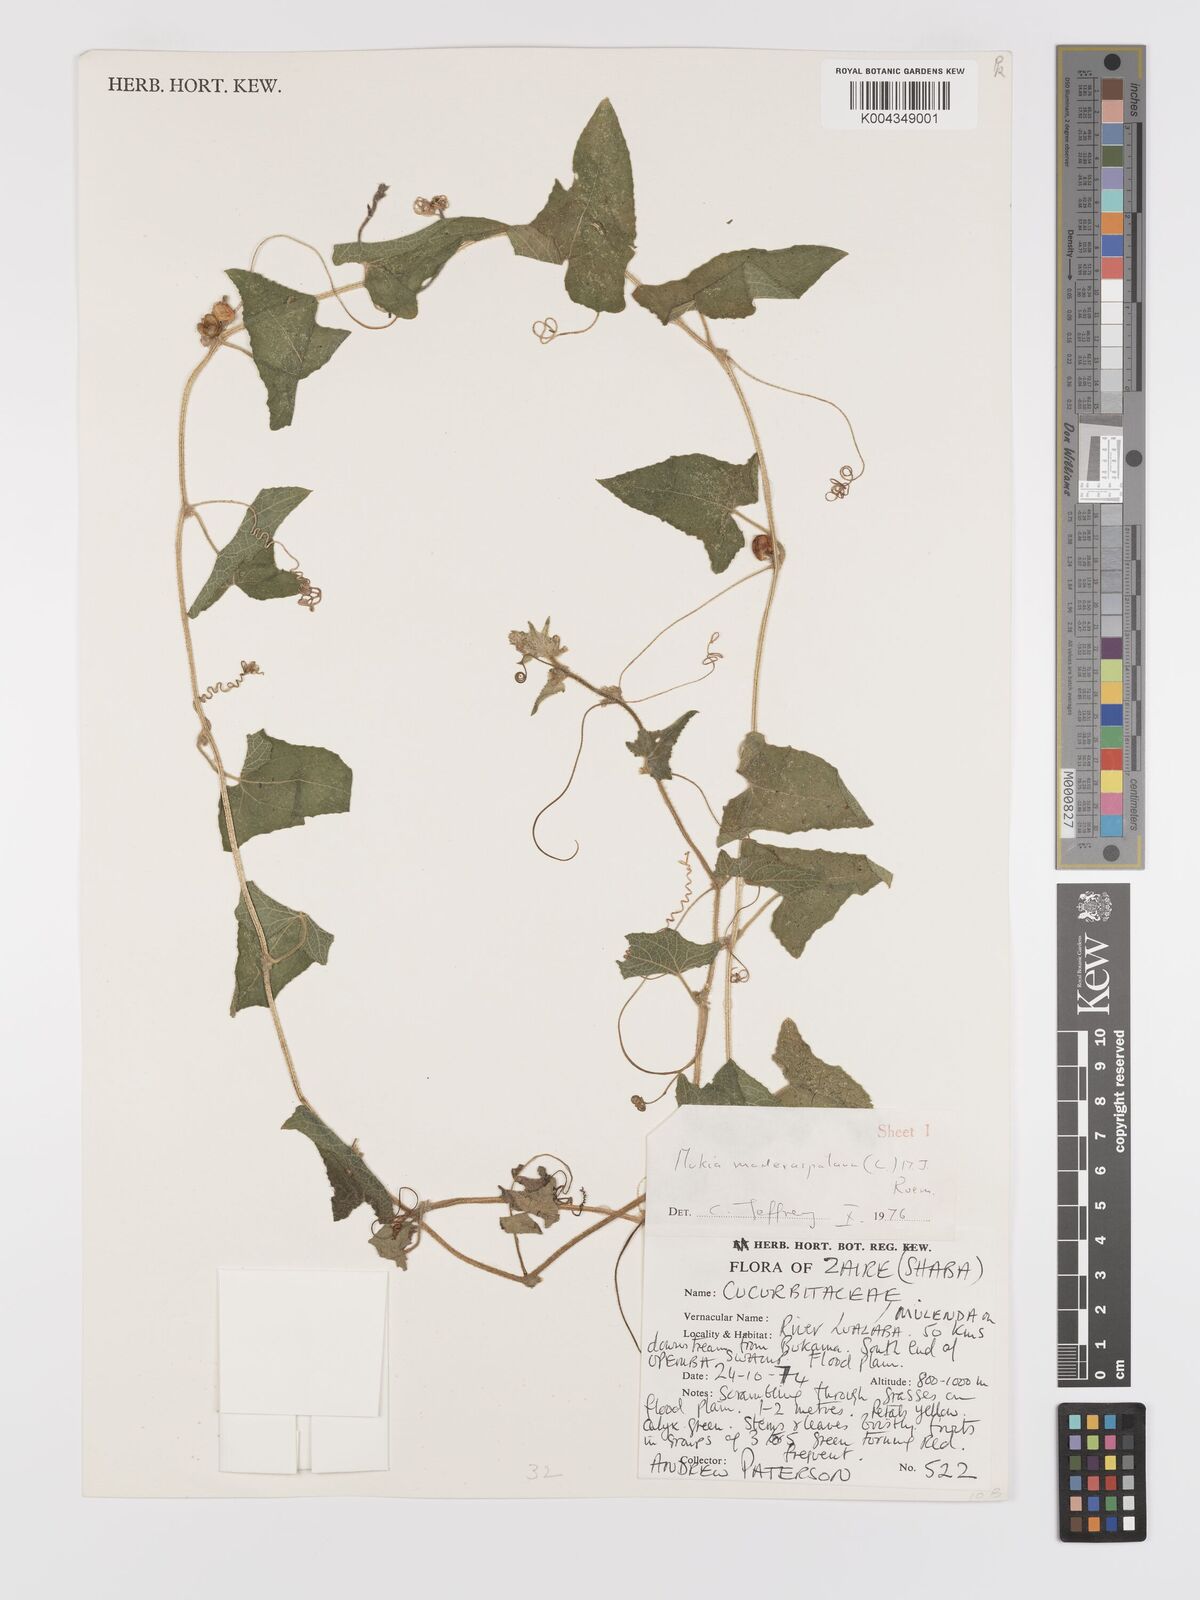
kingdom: Plantae
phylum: Tracheophyta
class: Magnoliopsida
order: Cucurbitales
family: Cucurbitaceae
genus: Cucumis
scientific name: Cucumis maderaspatanus
